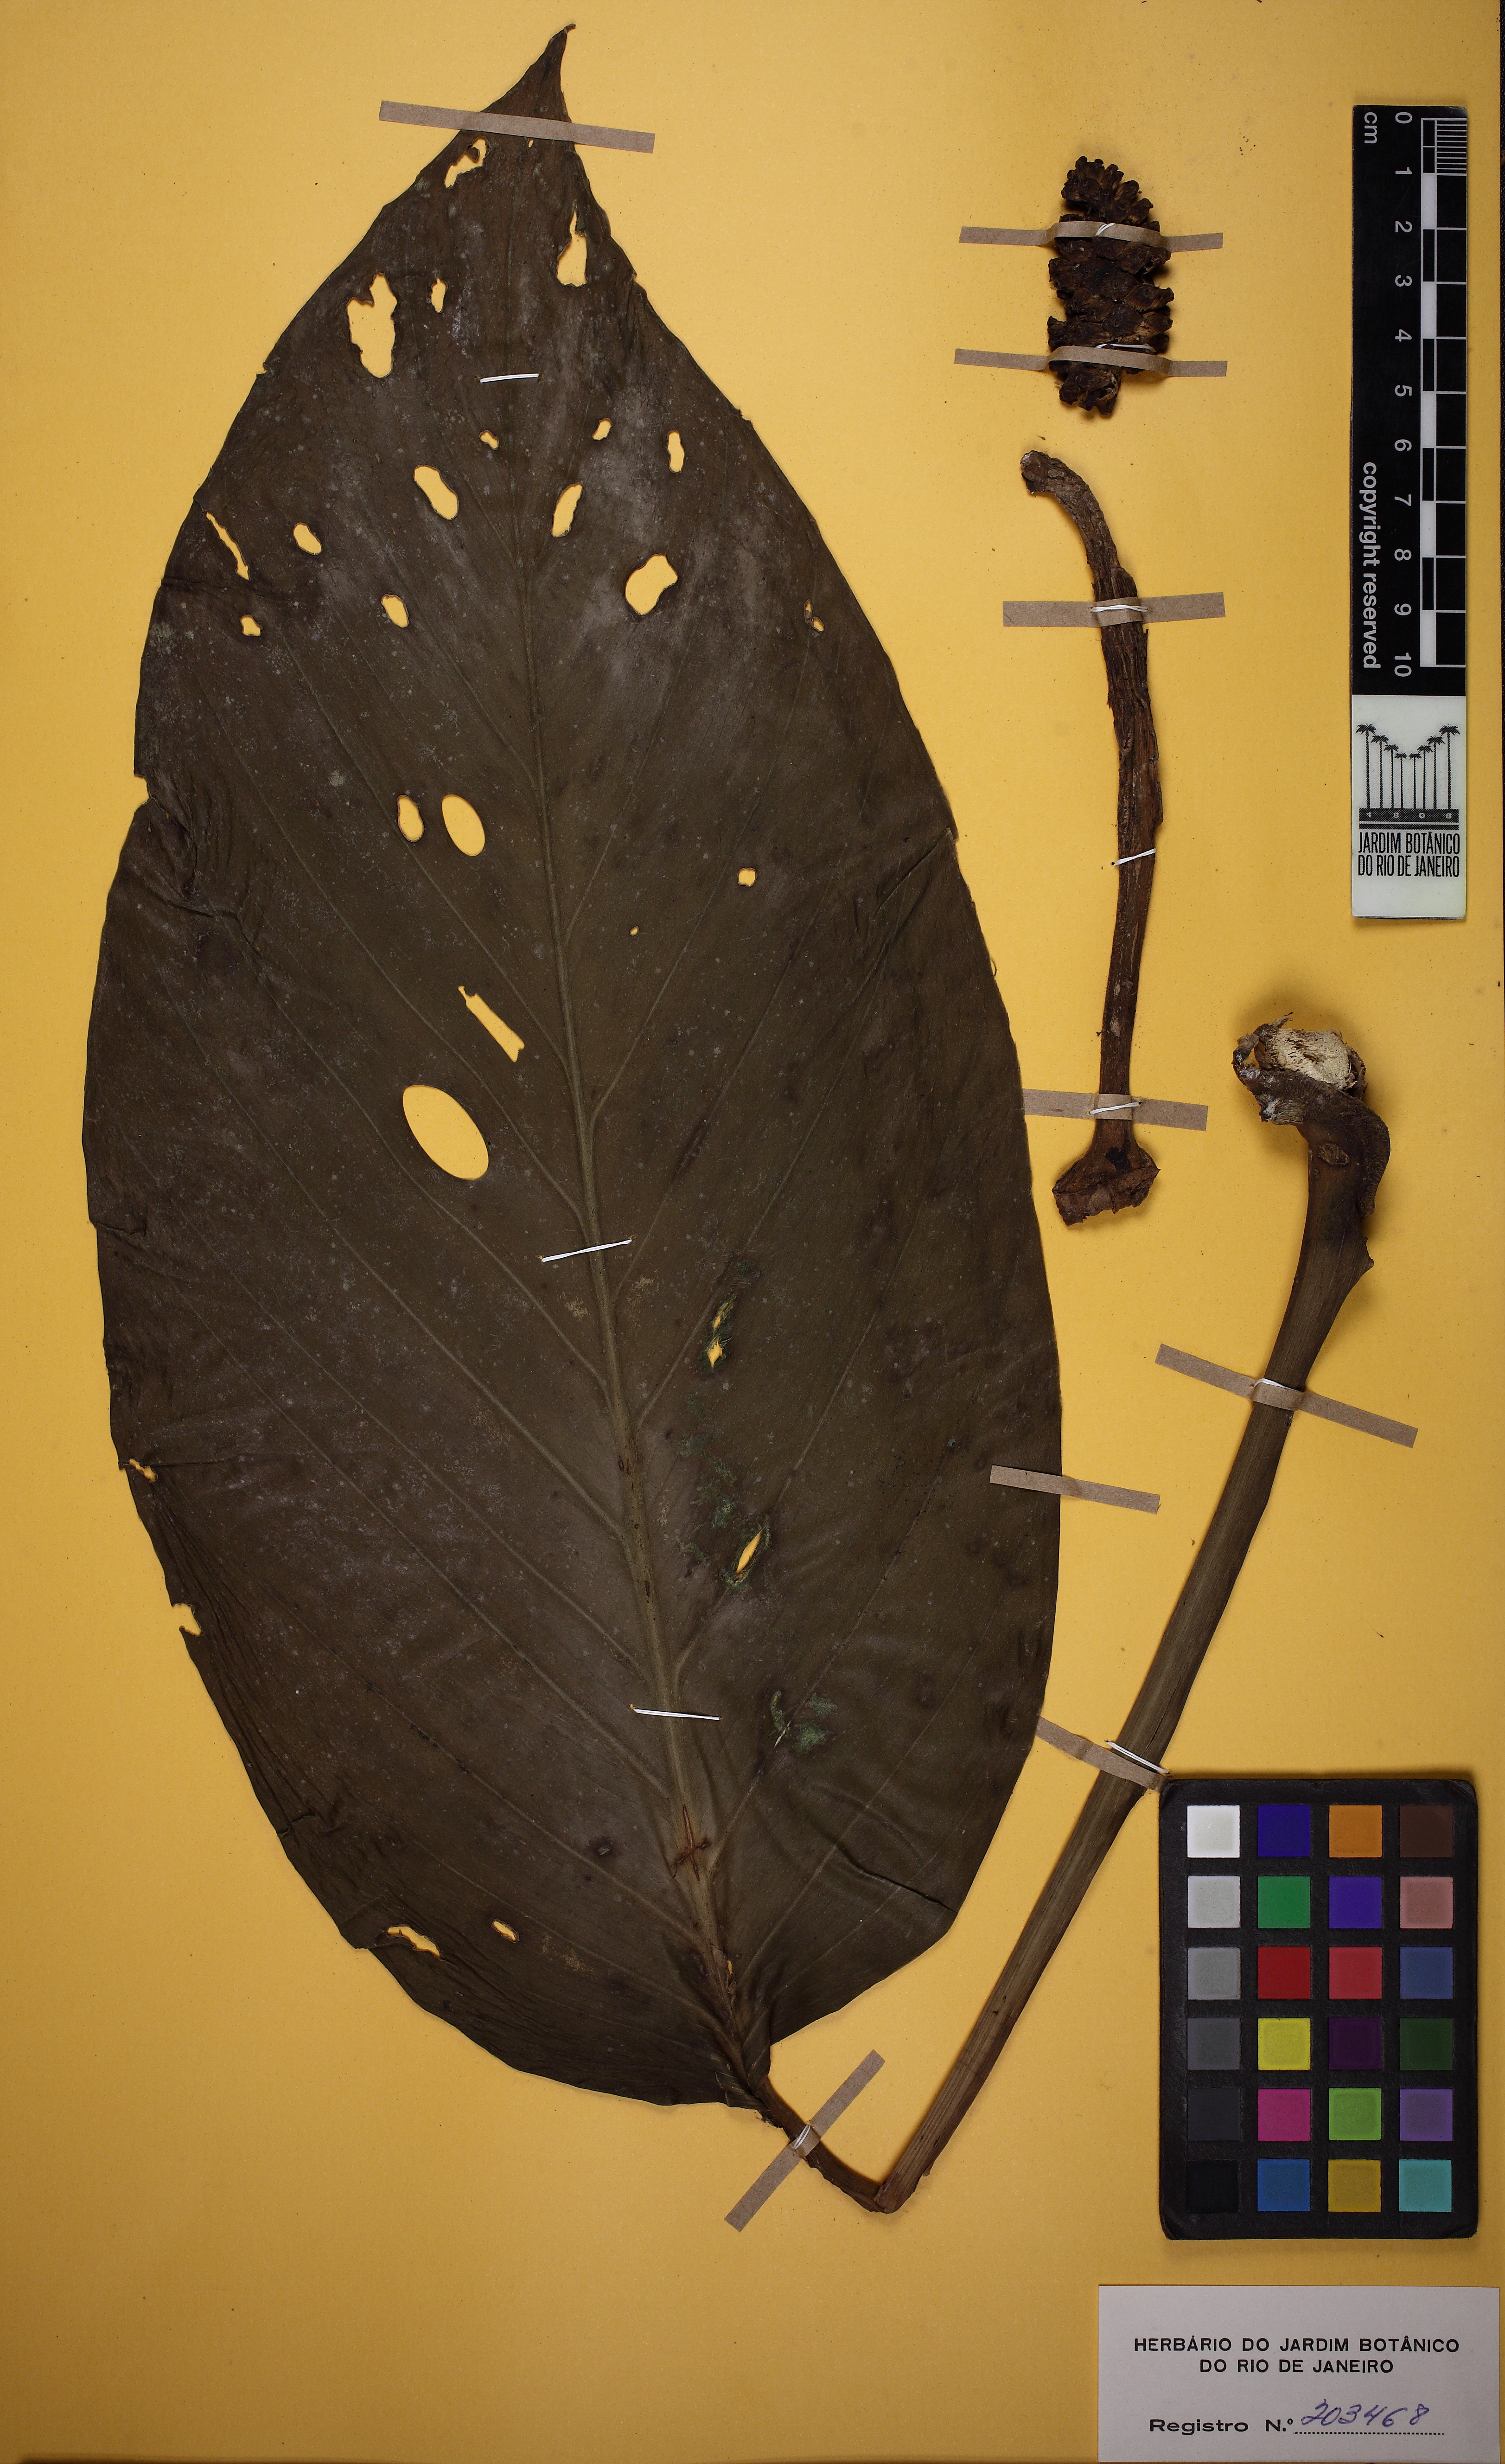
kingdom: Plantae
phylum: Tracheophyta
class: Liliopsida
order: Alismatales
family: Araceae
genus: Monstera
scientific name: Monstera adansonii
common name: Tarovine
